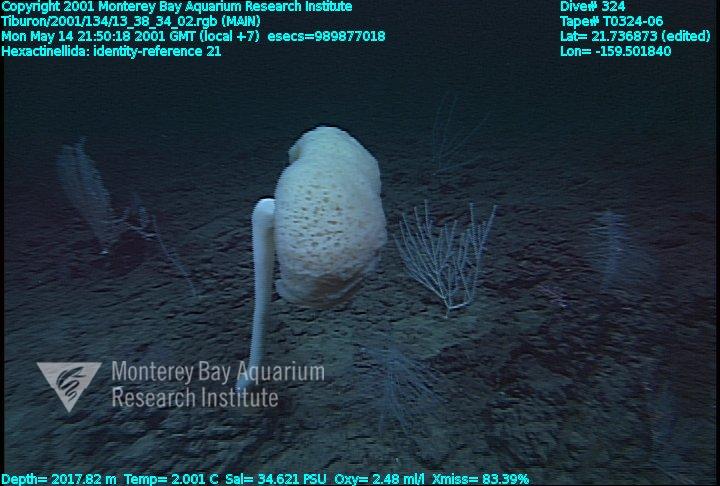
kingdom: Animalia
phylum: Porifera
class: Hexactinellida
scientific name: Hexactinellida
